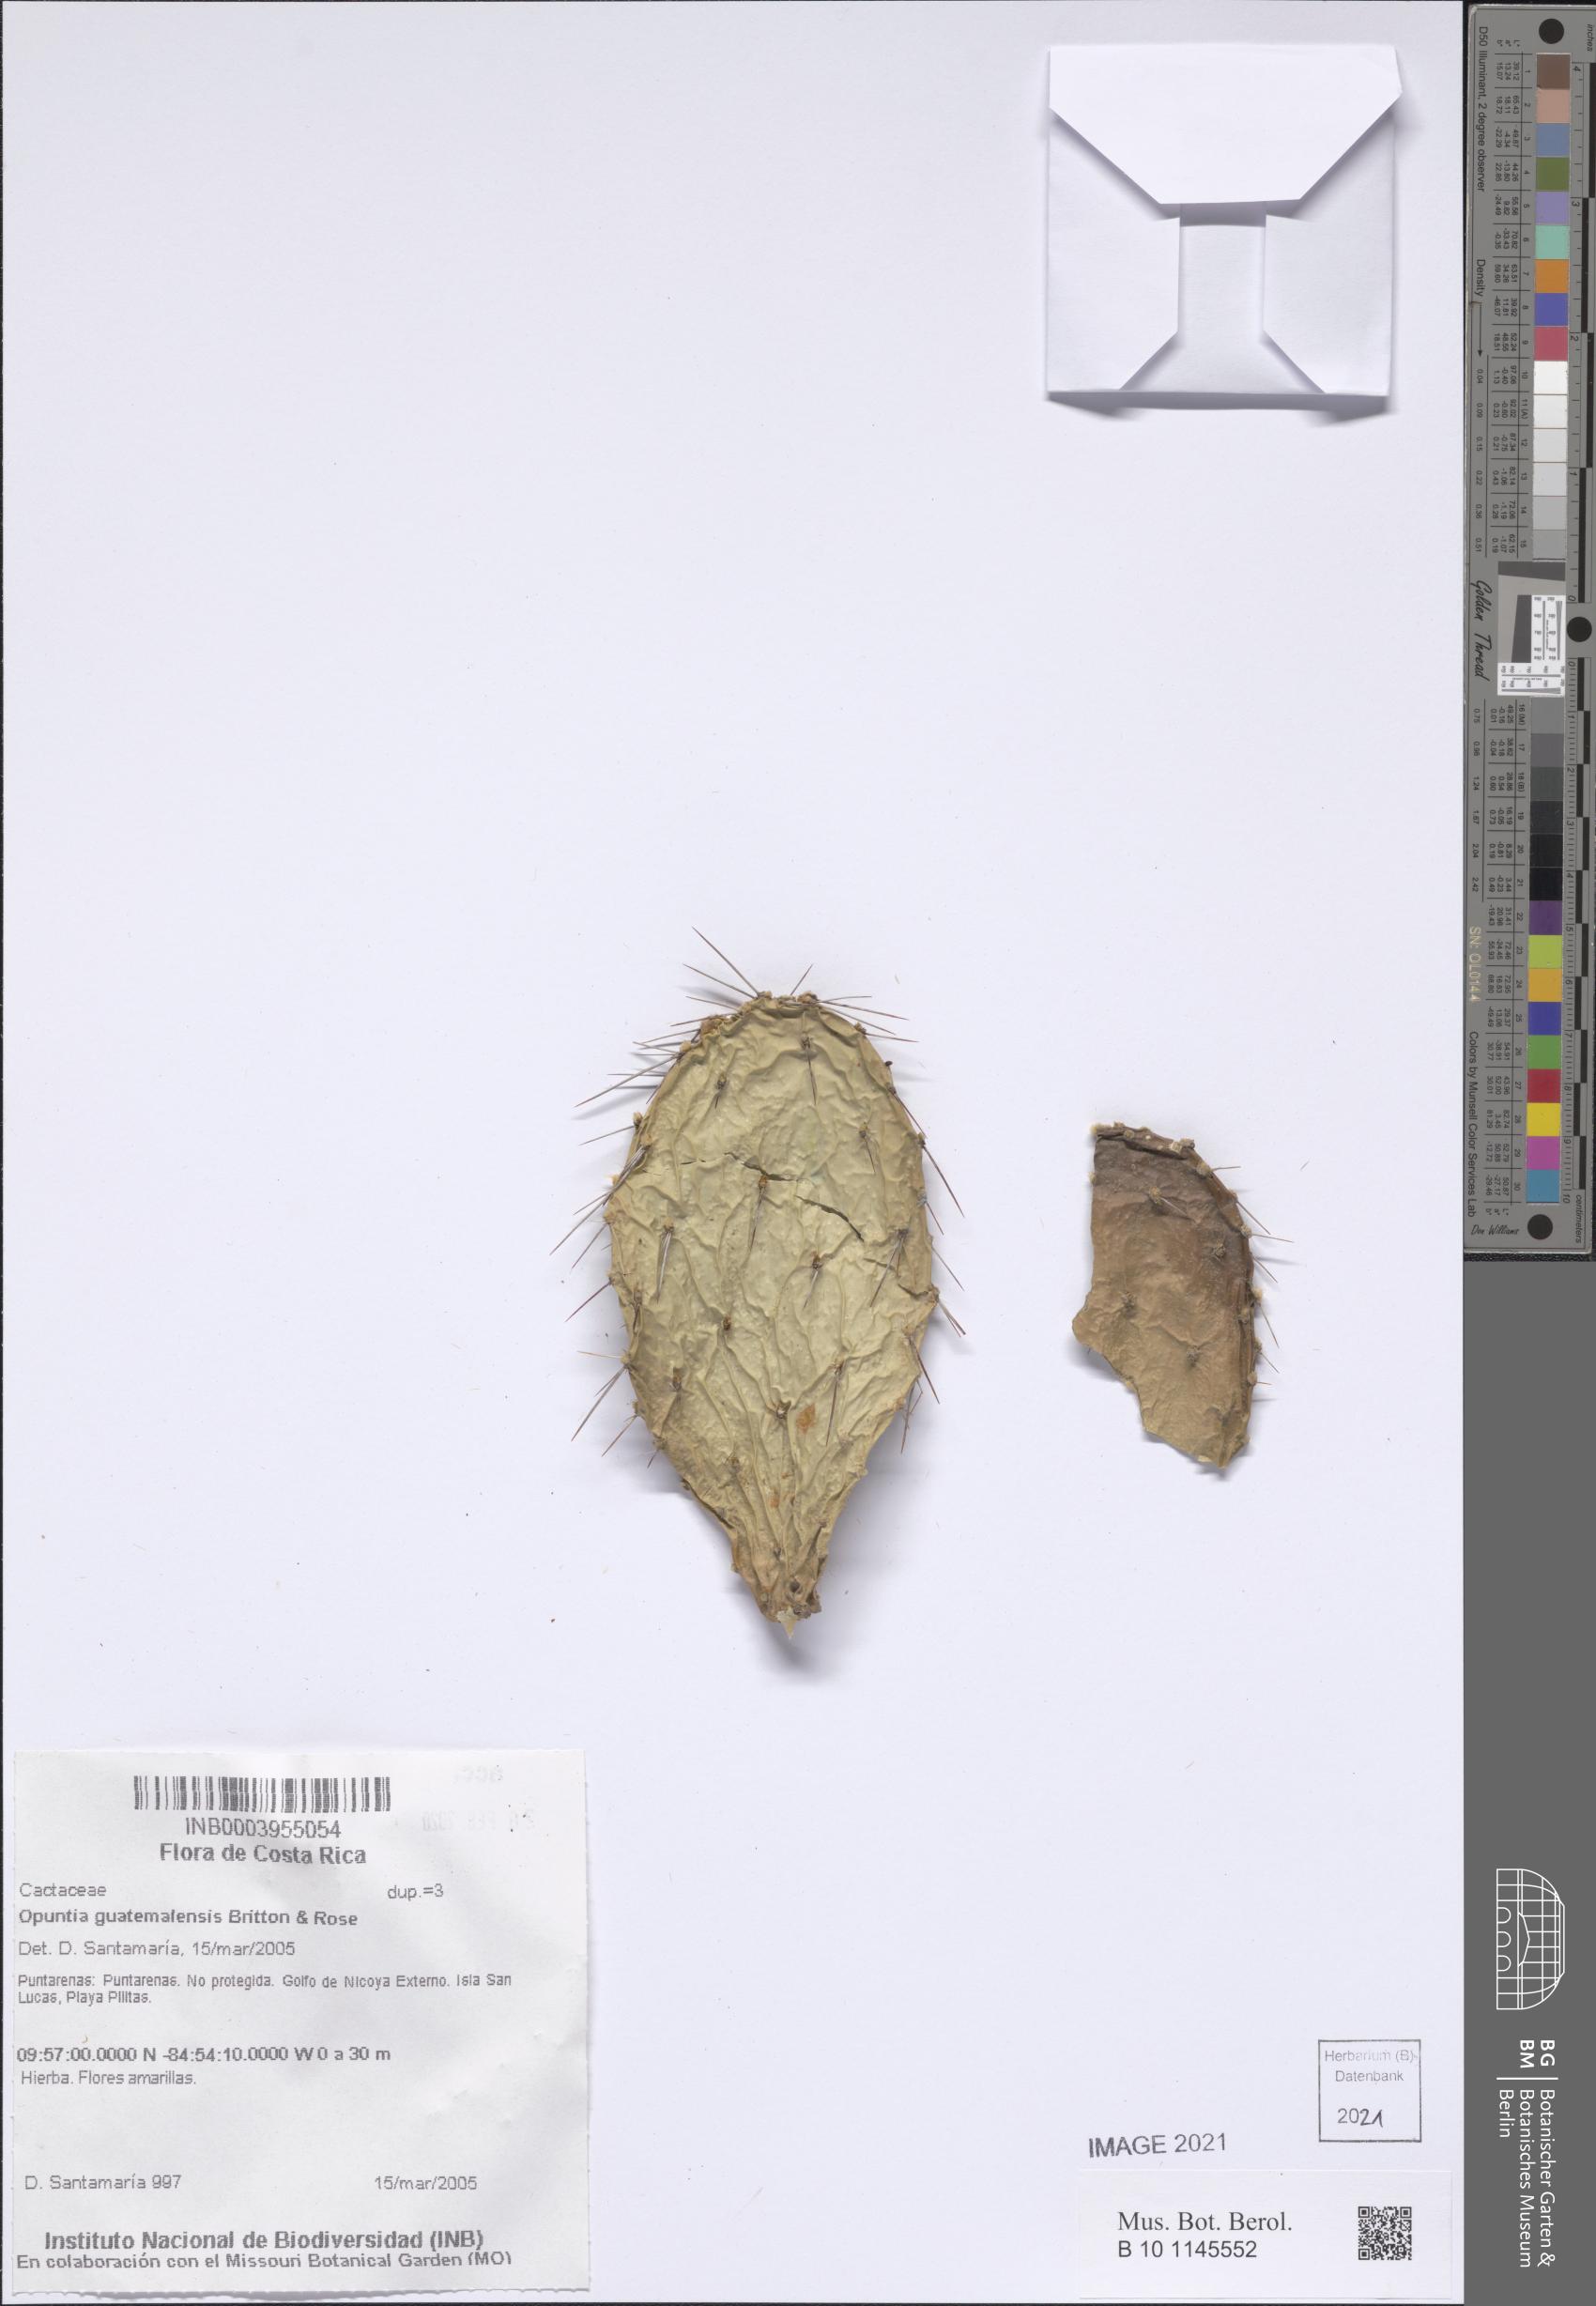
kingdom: Plantae
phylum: Tracheophyta
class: Magnoliopsida
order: Caryophyllales
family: Cactaceae
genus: Opuntia
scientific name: Opuntia auberi
